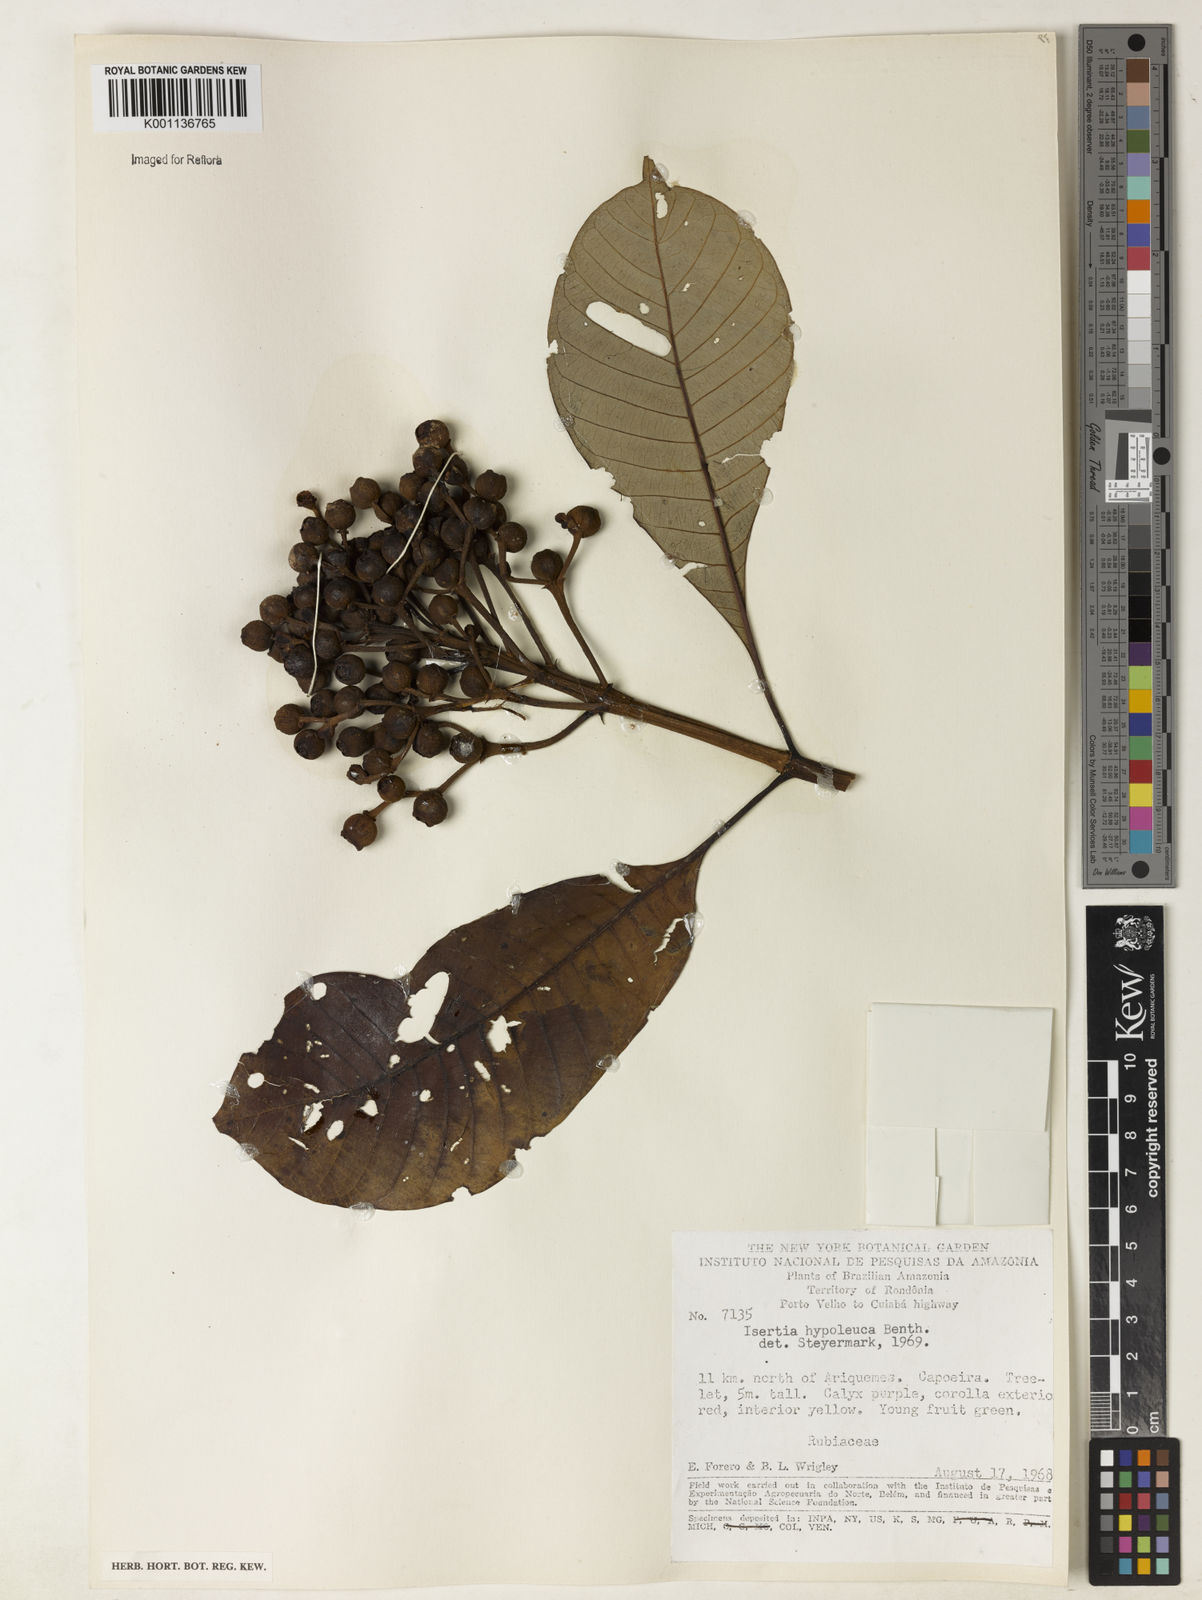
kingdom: Plantae
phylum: Tracheophyta
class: Magnoliopsida
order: Gentianales
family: Rubiaceae
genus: Isertia
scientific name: Isertia hypoleuca
